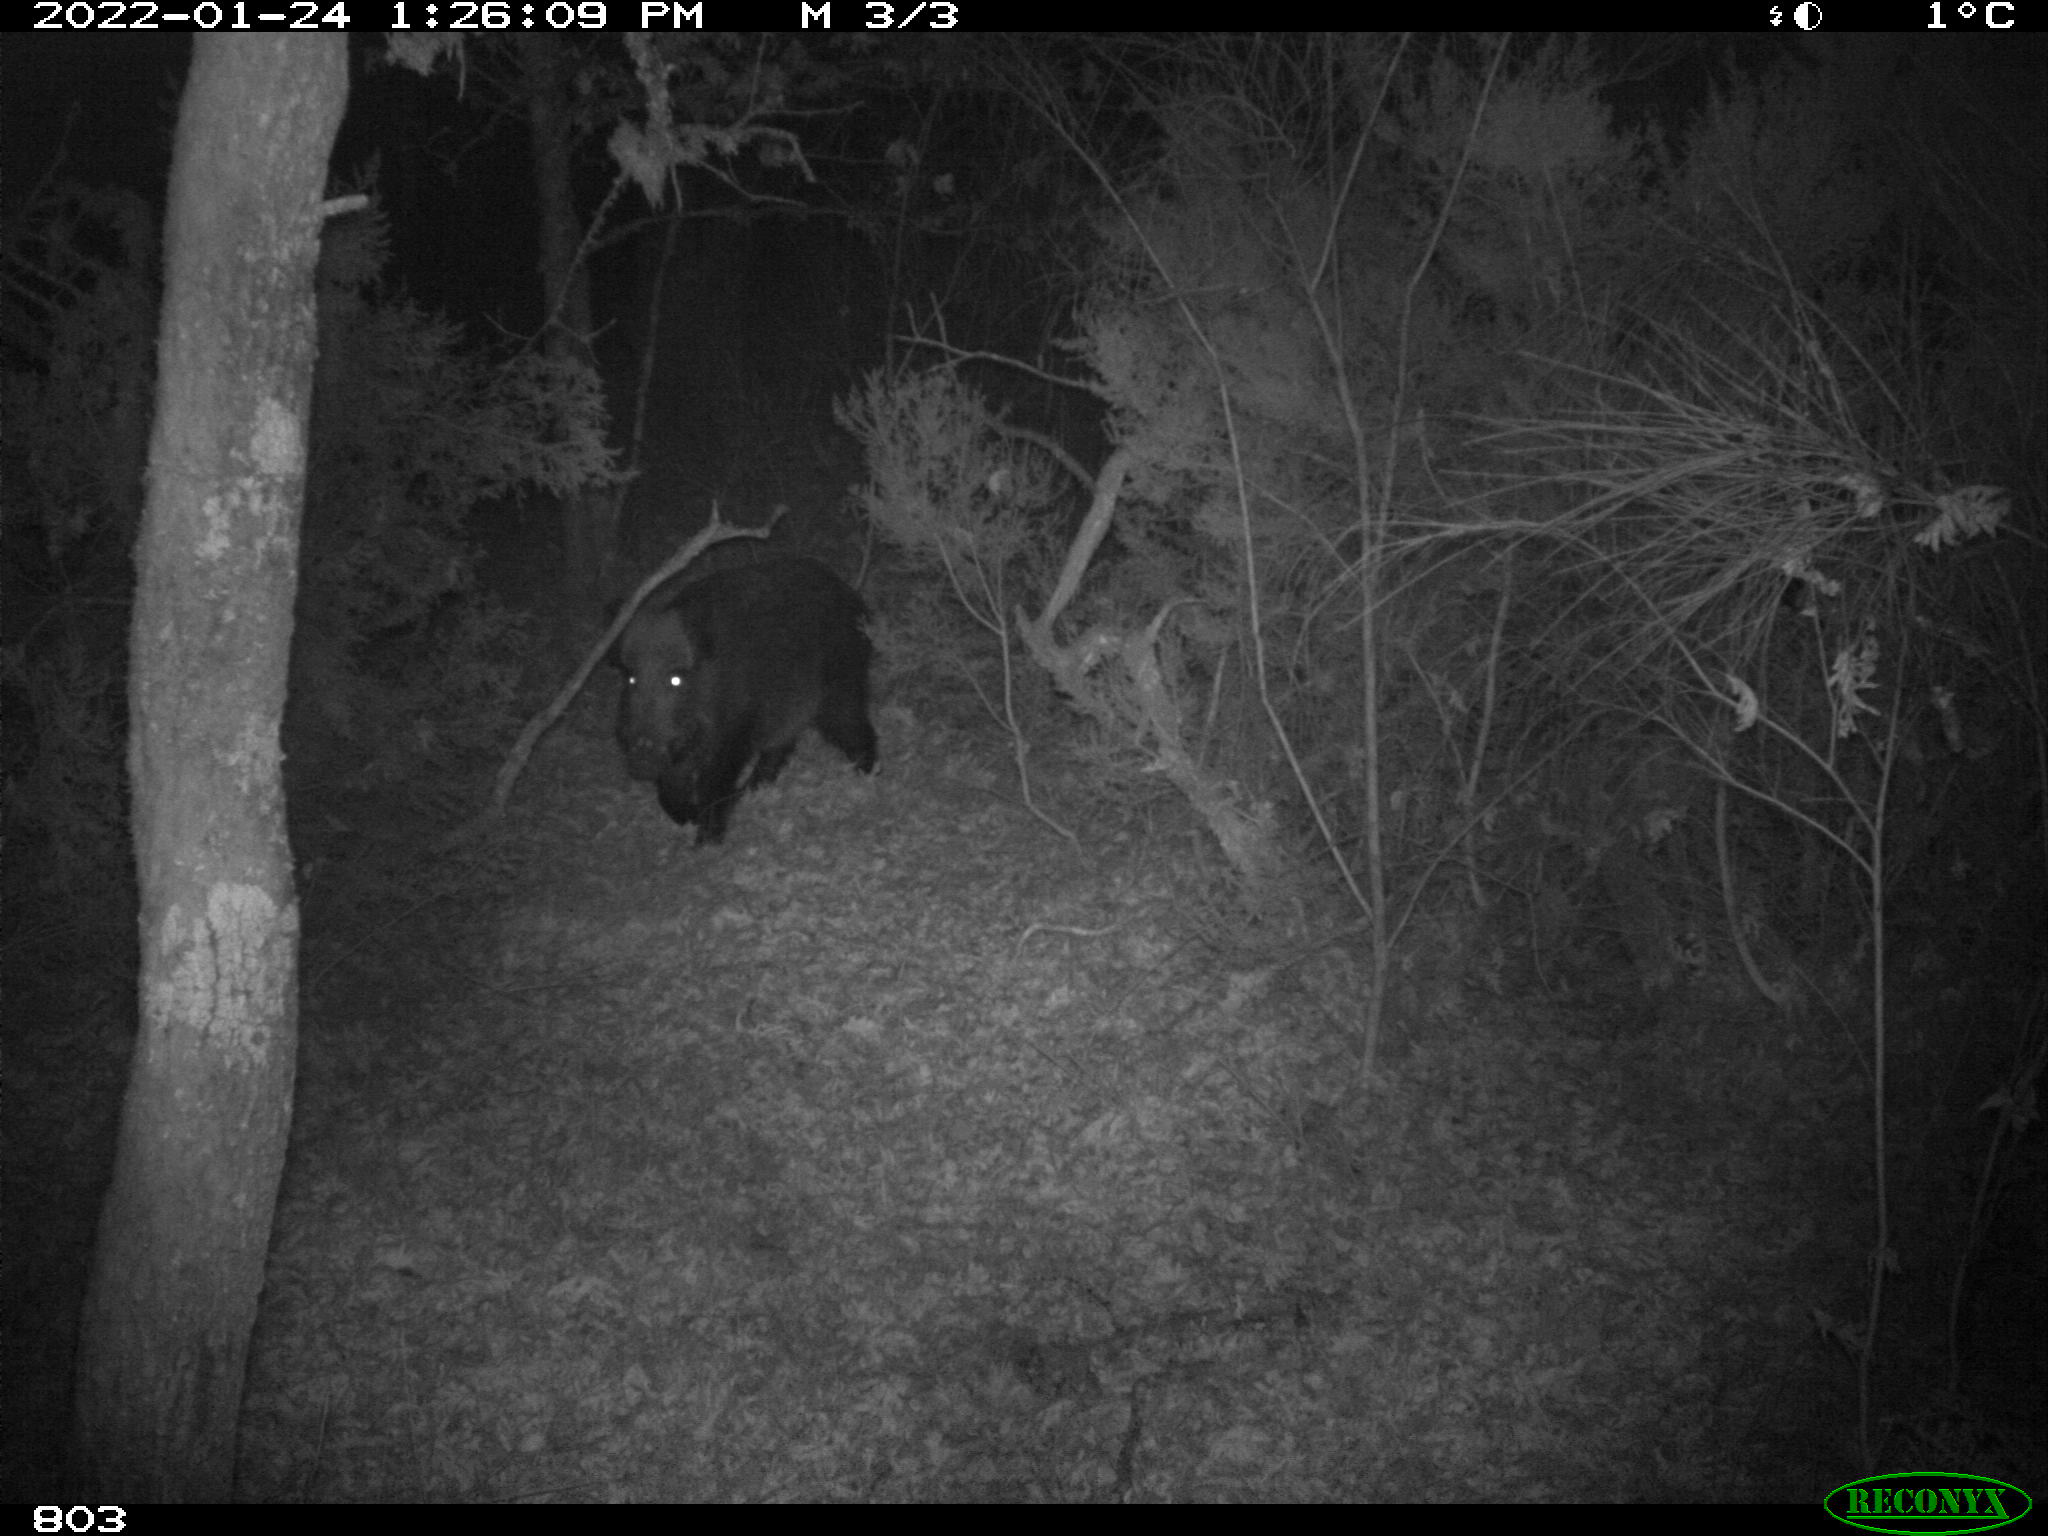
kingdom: Animalia
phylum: Chordata
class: Mammalia
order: Artiodactyla
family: Suidae
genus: Sus
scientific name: Sus scrofa
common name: Wild boar
